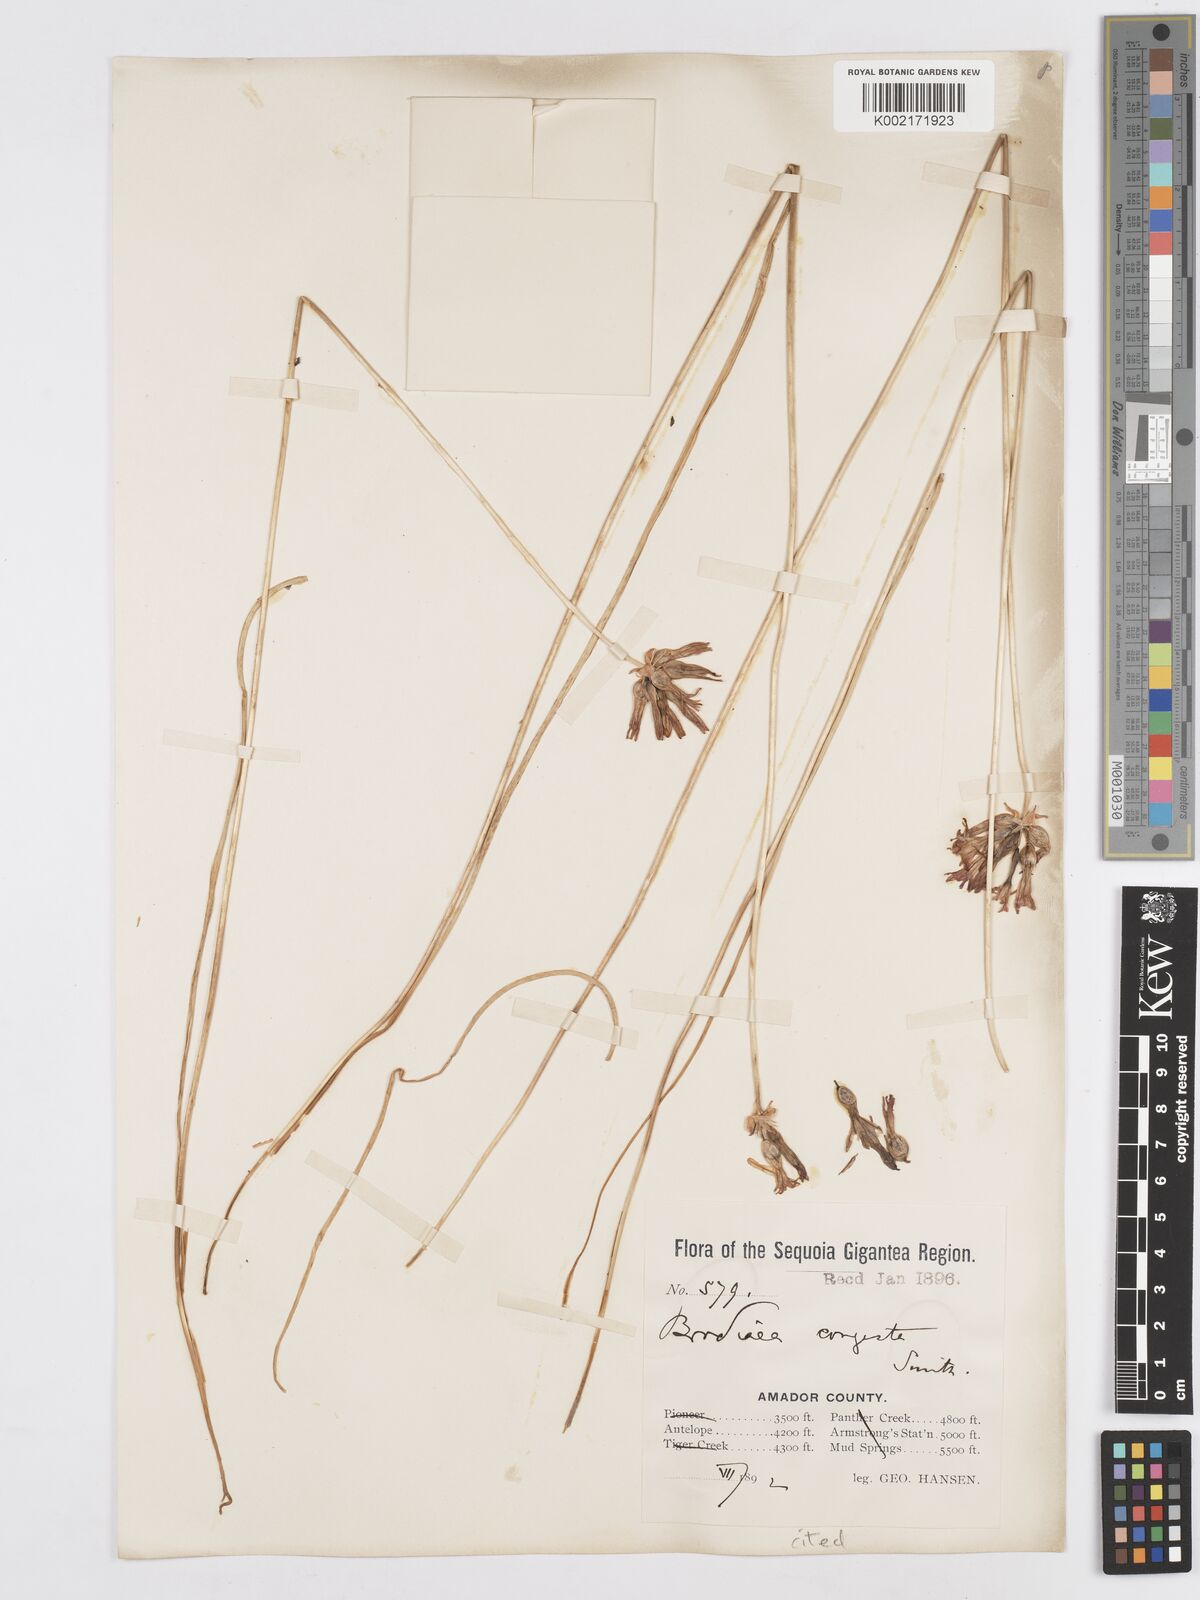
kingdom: Plantae
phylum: Tracheophyta
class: Liliopsida
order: Asparagales
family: Asparagaceae
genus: Dichelostemma
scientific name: Dichelostemma multiflorum
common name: Round-tooth ookow
